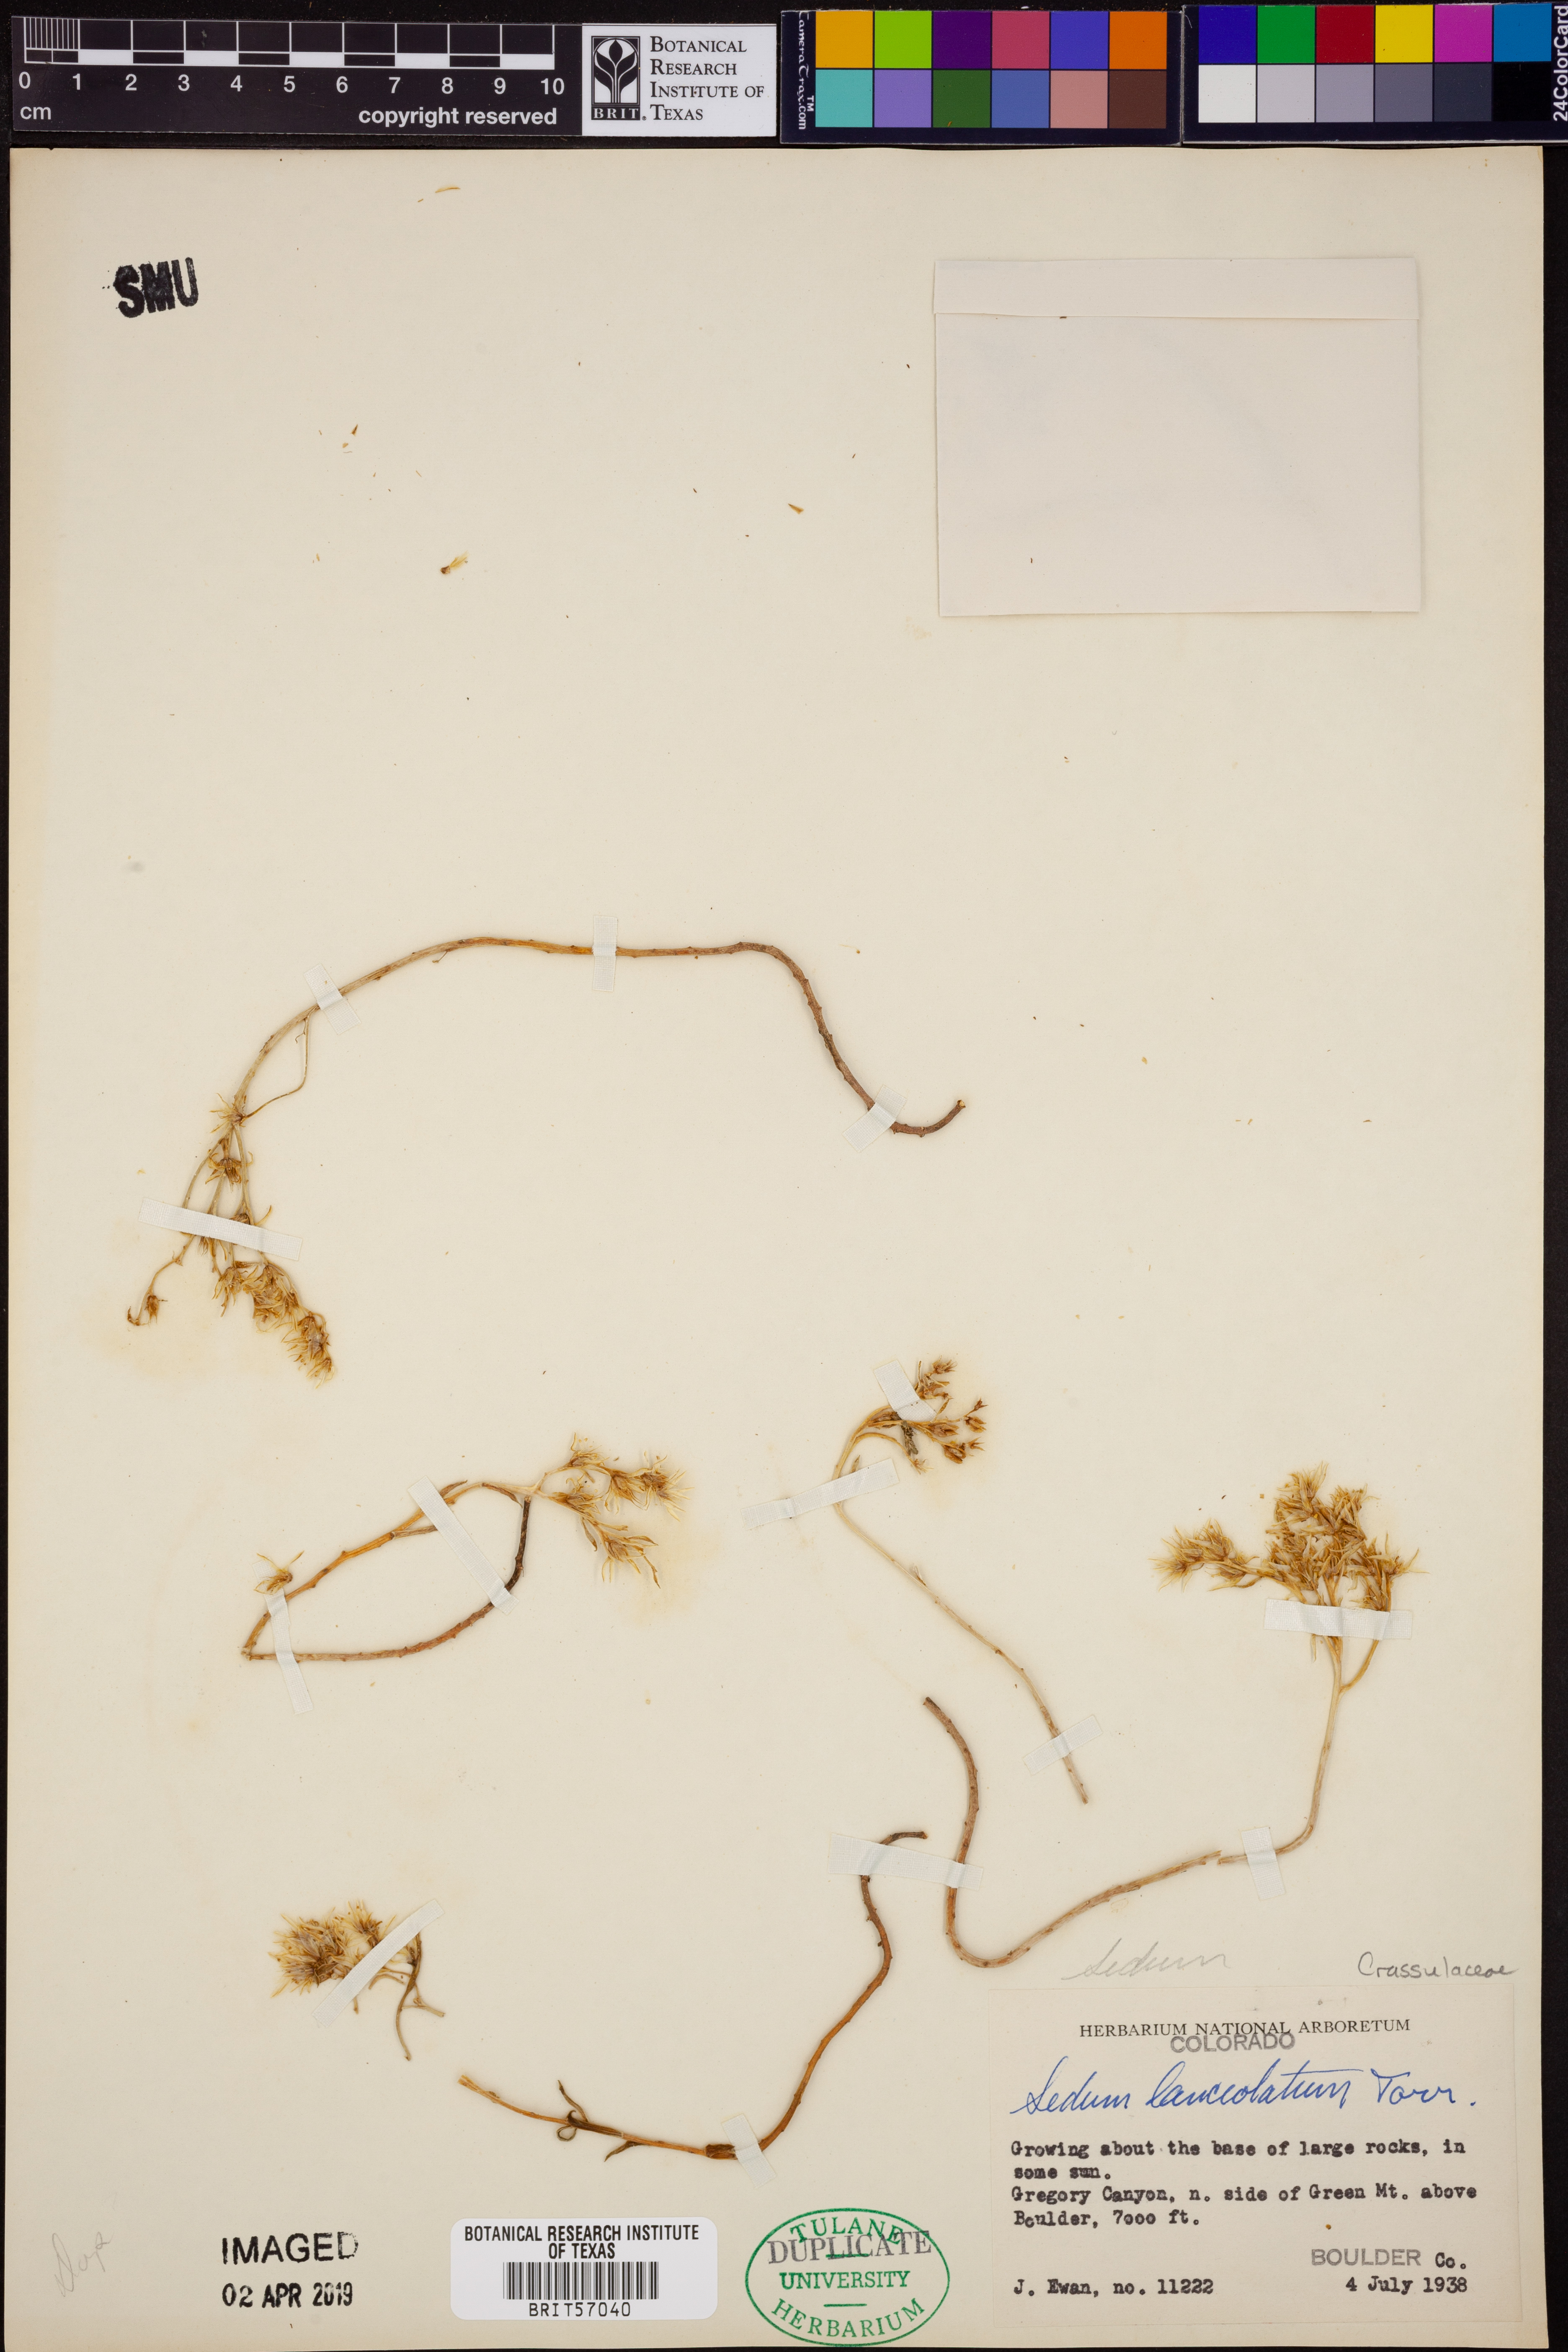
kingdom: Plantae
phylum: Tracheophyta
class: Magnoliopsida
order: Saxifragales
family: Crassulaceae
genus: Sedum
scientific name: Sedum lanceolatum
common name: Common stonecrop
